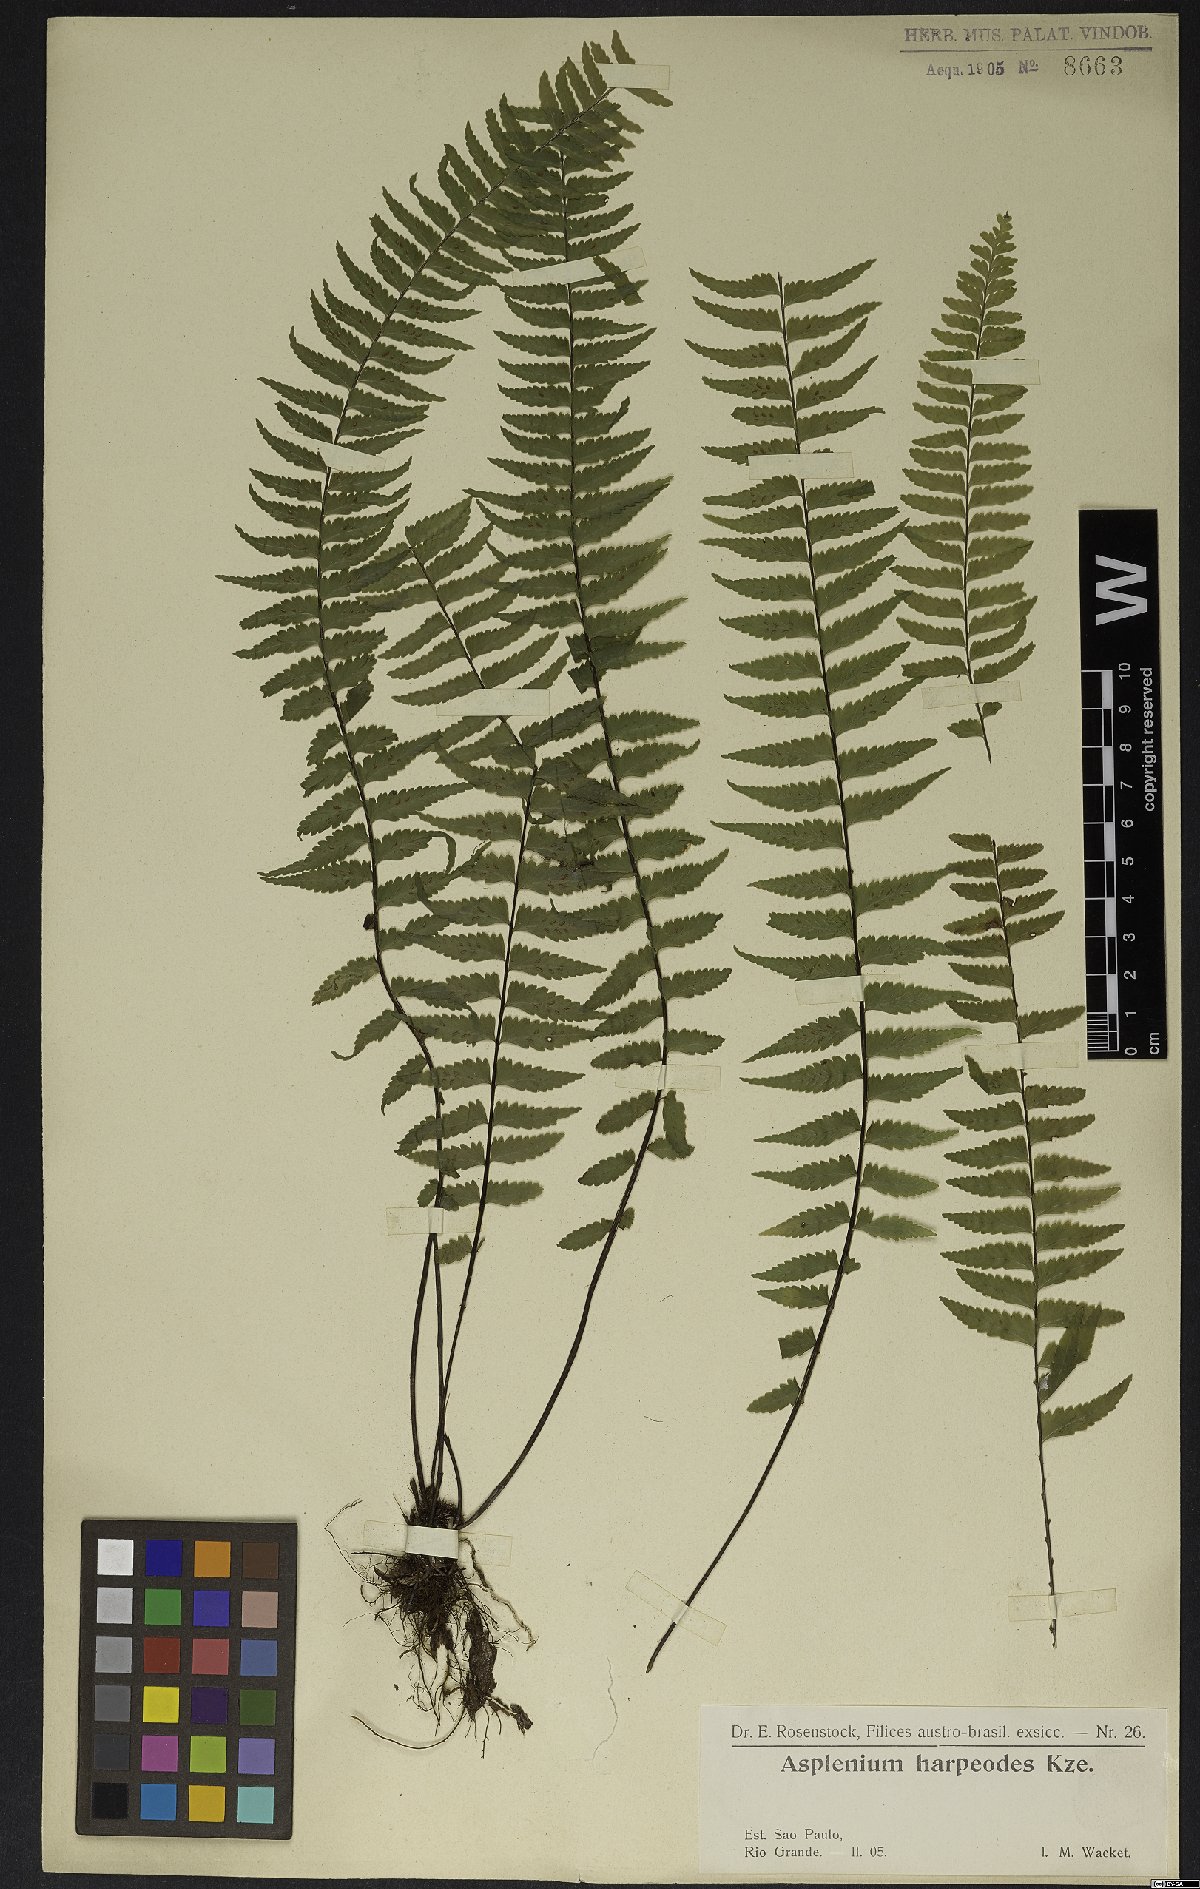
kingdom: Plantae
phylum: Tracheophyta
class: Polypodiopsida
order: Polypodiales
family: Aspleniaceae
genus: Asplenium
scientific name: Asplenium lunulatum
